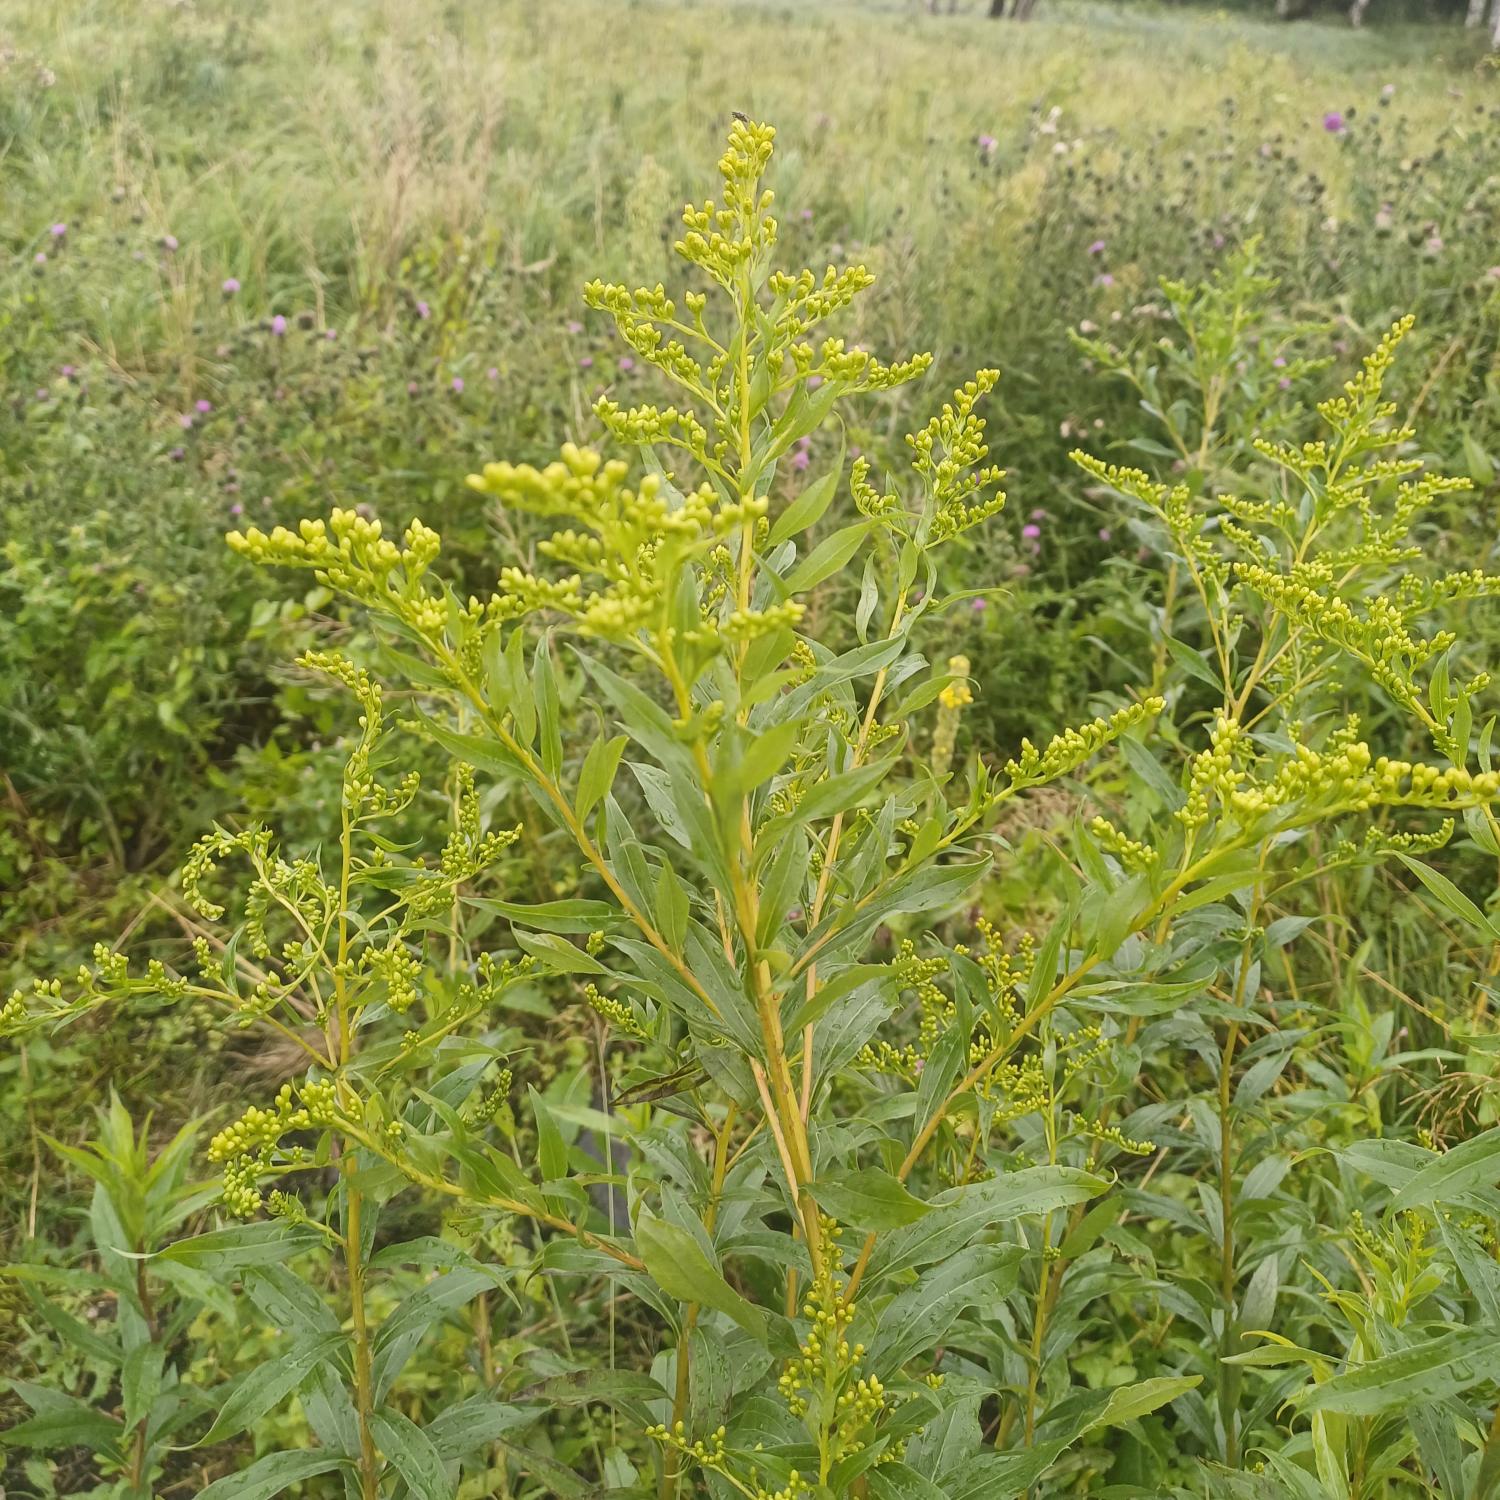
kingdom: Plantae
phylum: Tracheophyta
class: Magnoliopsida
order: Asterales
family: Asteraceae
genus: Solidago
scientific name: Solidago gigantea
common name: Sildig gyldenris
